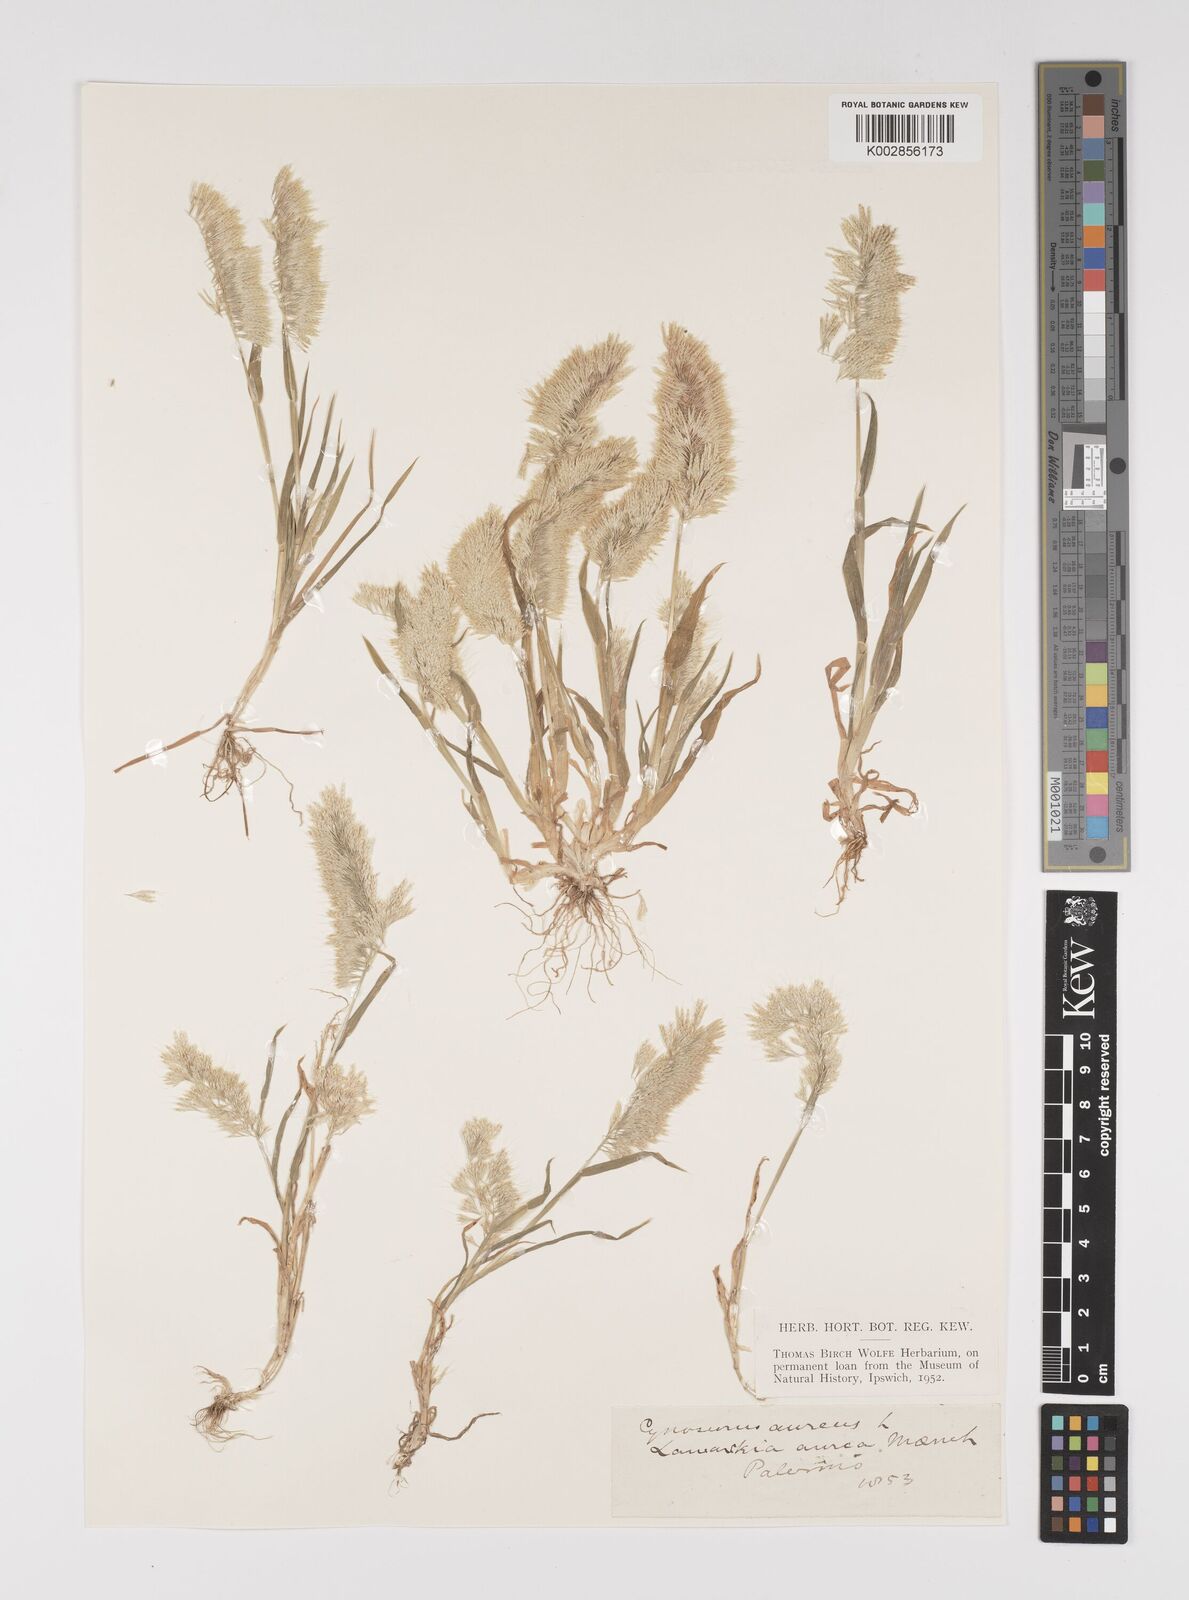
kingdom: Plantae
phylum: Tracheophyta
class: Liliopsida
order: Poales
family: Poaceae
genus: Lamarckia
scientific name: Lamarckia aurea
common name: Golden dog's-tail
